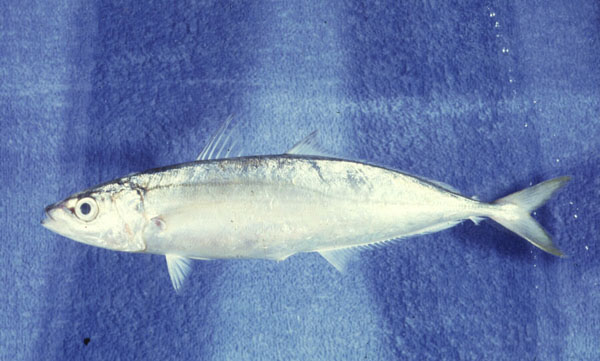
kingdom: Animalia
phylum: Chordata
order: Perciformes
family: Carangidae
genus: Decapterus
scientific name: Decapterus macarellus
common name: Mackerel scad
